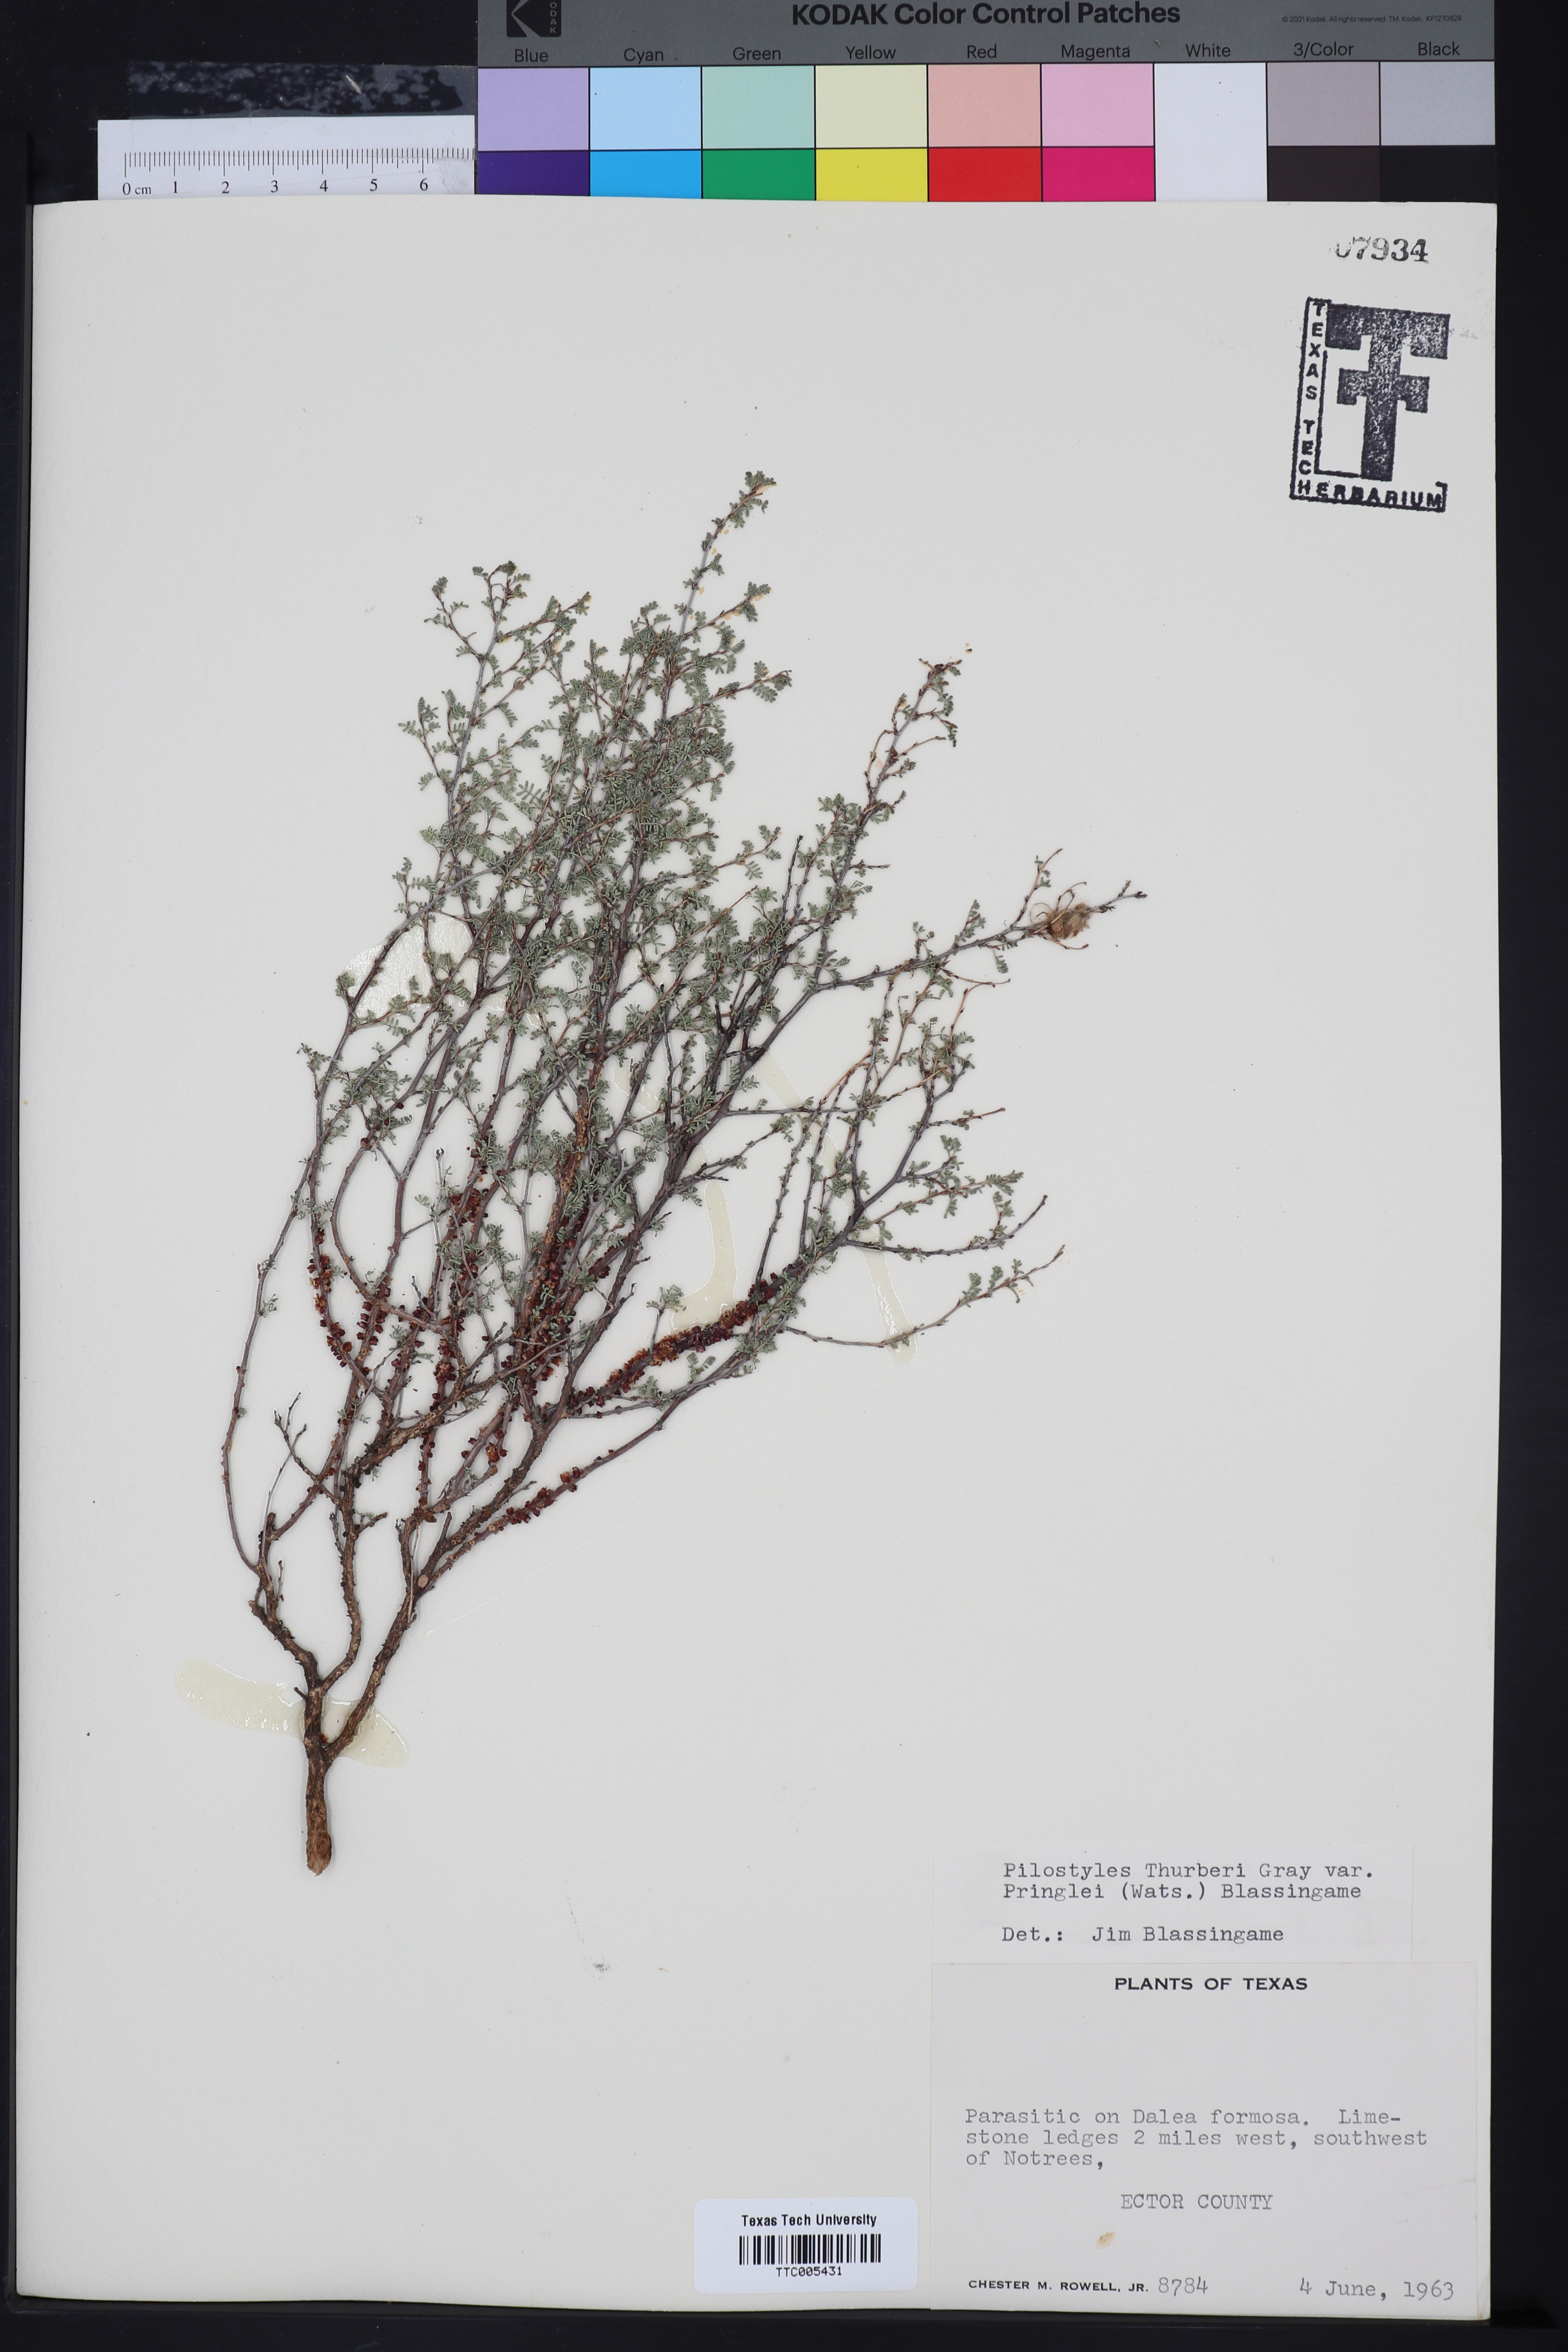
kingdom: Plantae
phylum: Tracheophyta
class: Magnoliopsida
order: Cucurbitales
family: Apodanthaceae
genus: Pilostyles
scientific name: Pilostyles thurberi
